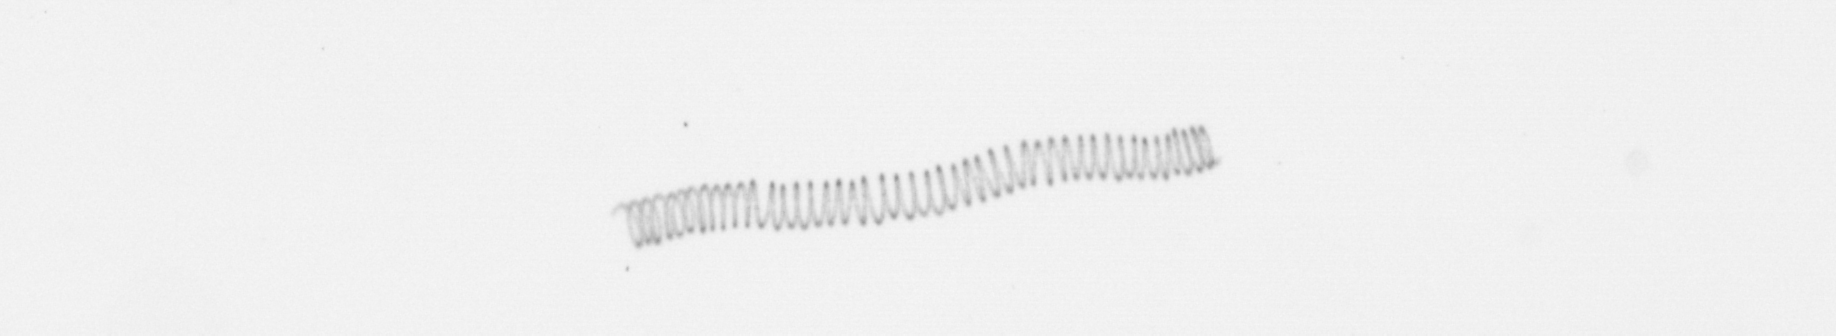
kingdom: Chromista
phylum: Ochrophyta
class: Bacillariophyceae
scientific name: Bacillariophyceae
